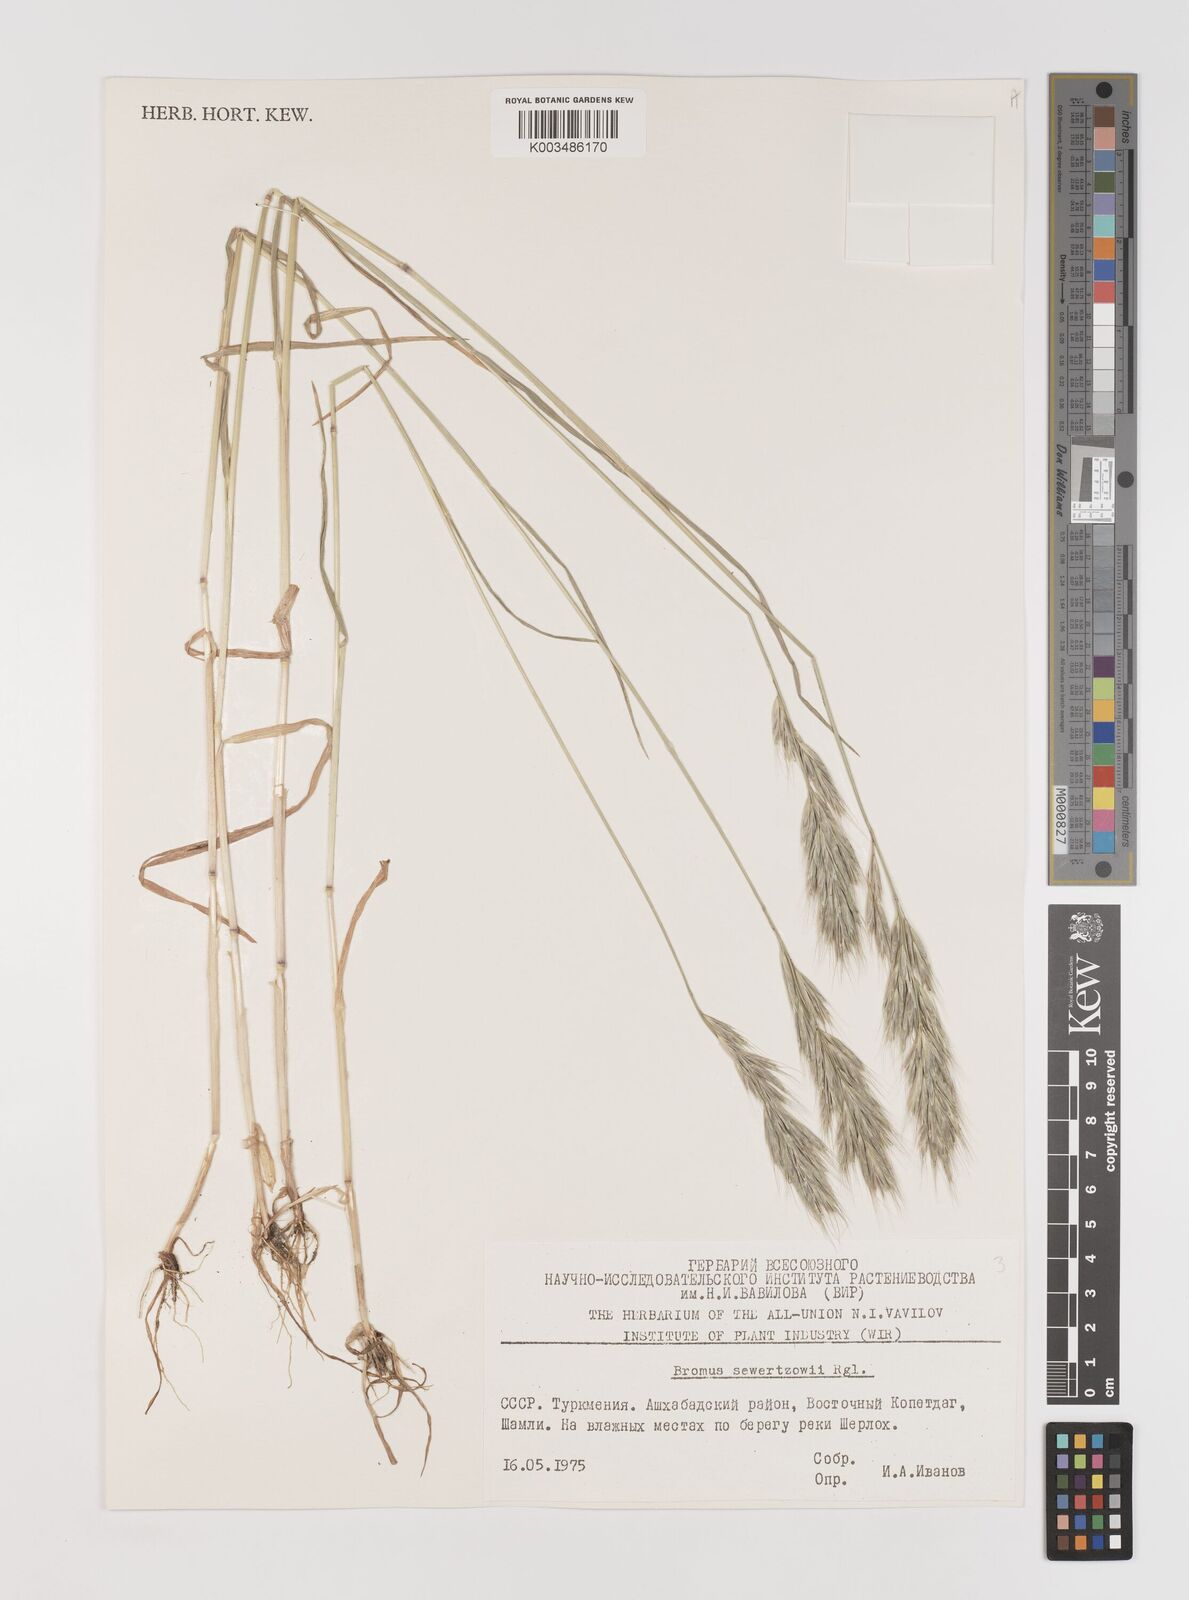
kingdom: Plantae
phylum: Tracheophyta
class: Liliopsida
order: Poales
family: Poaceae
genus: Bromus
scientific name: Bromus sewerzowii
